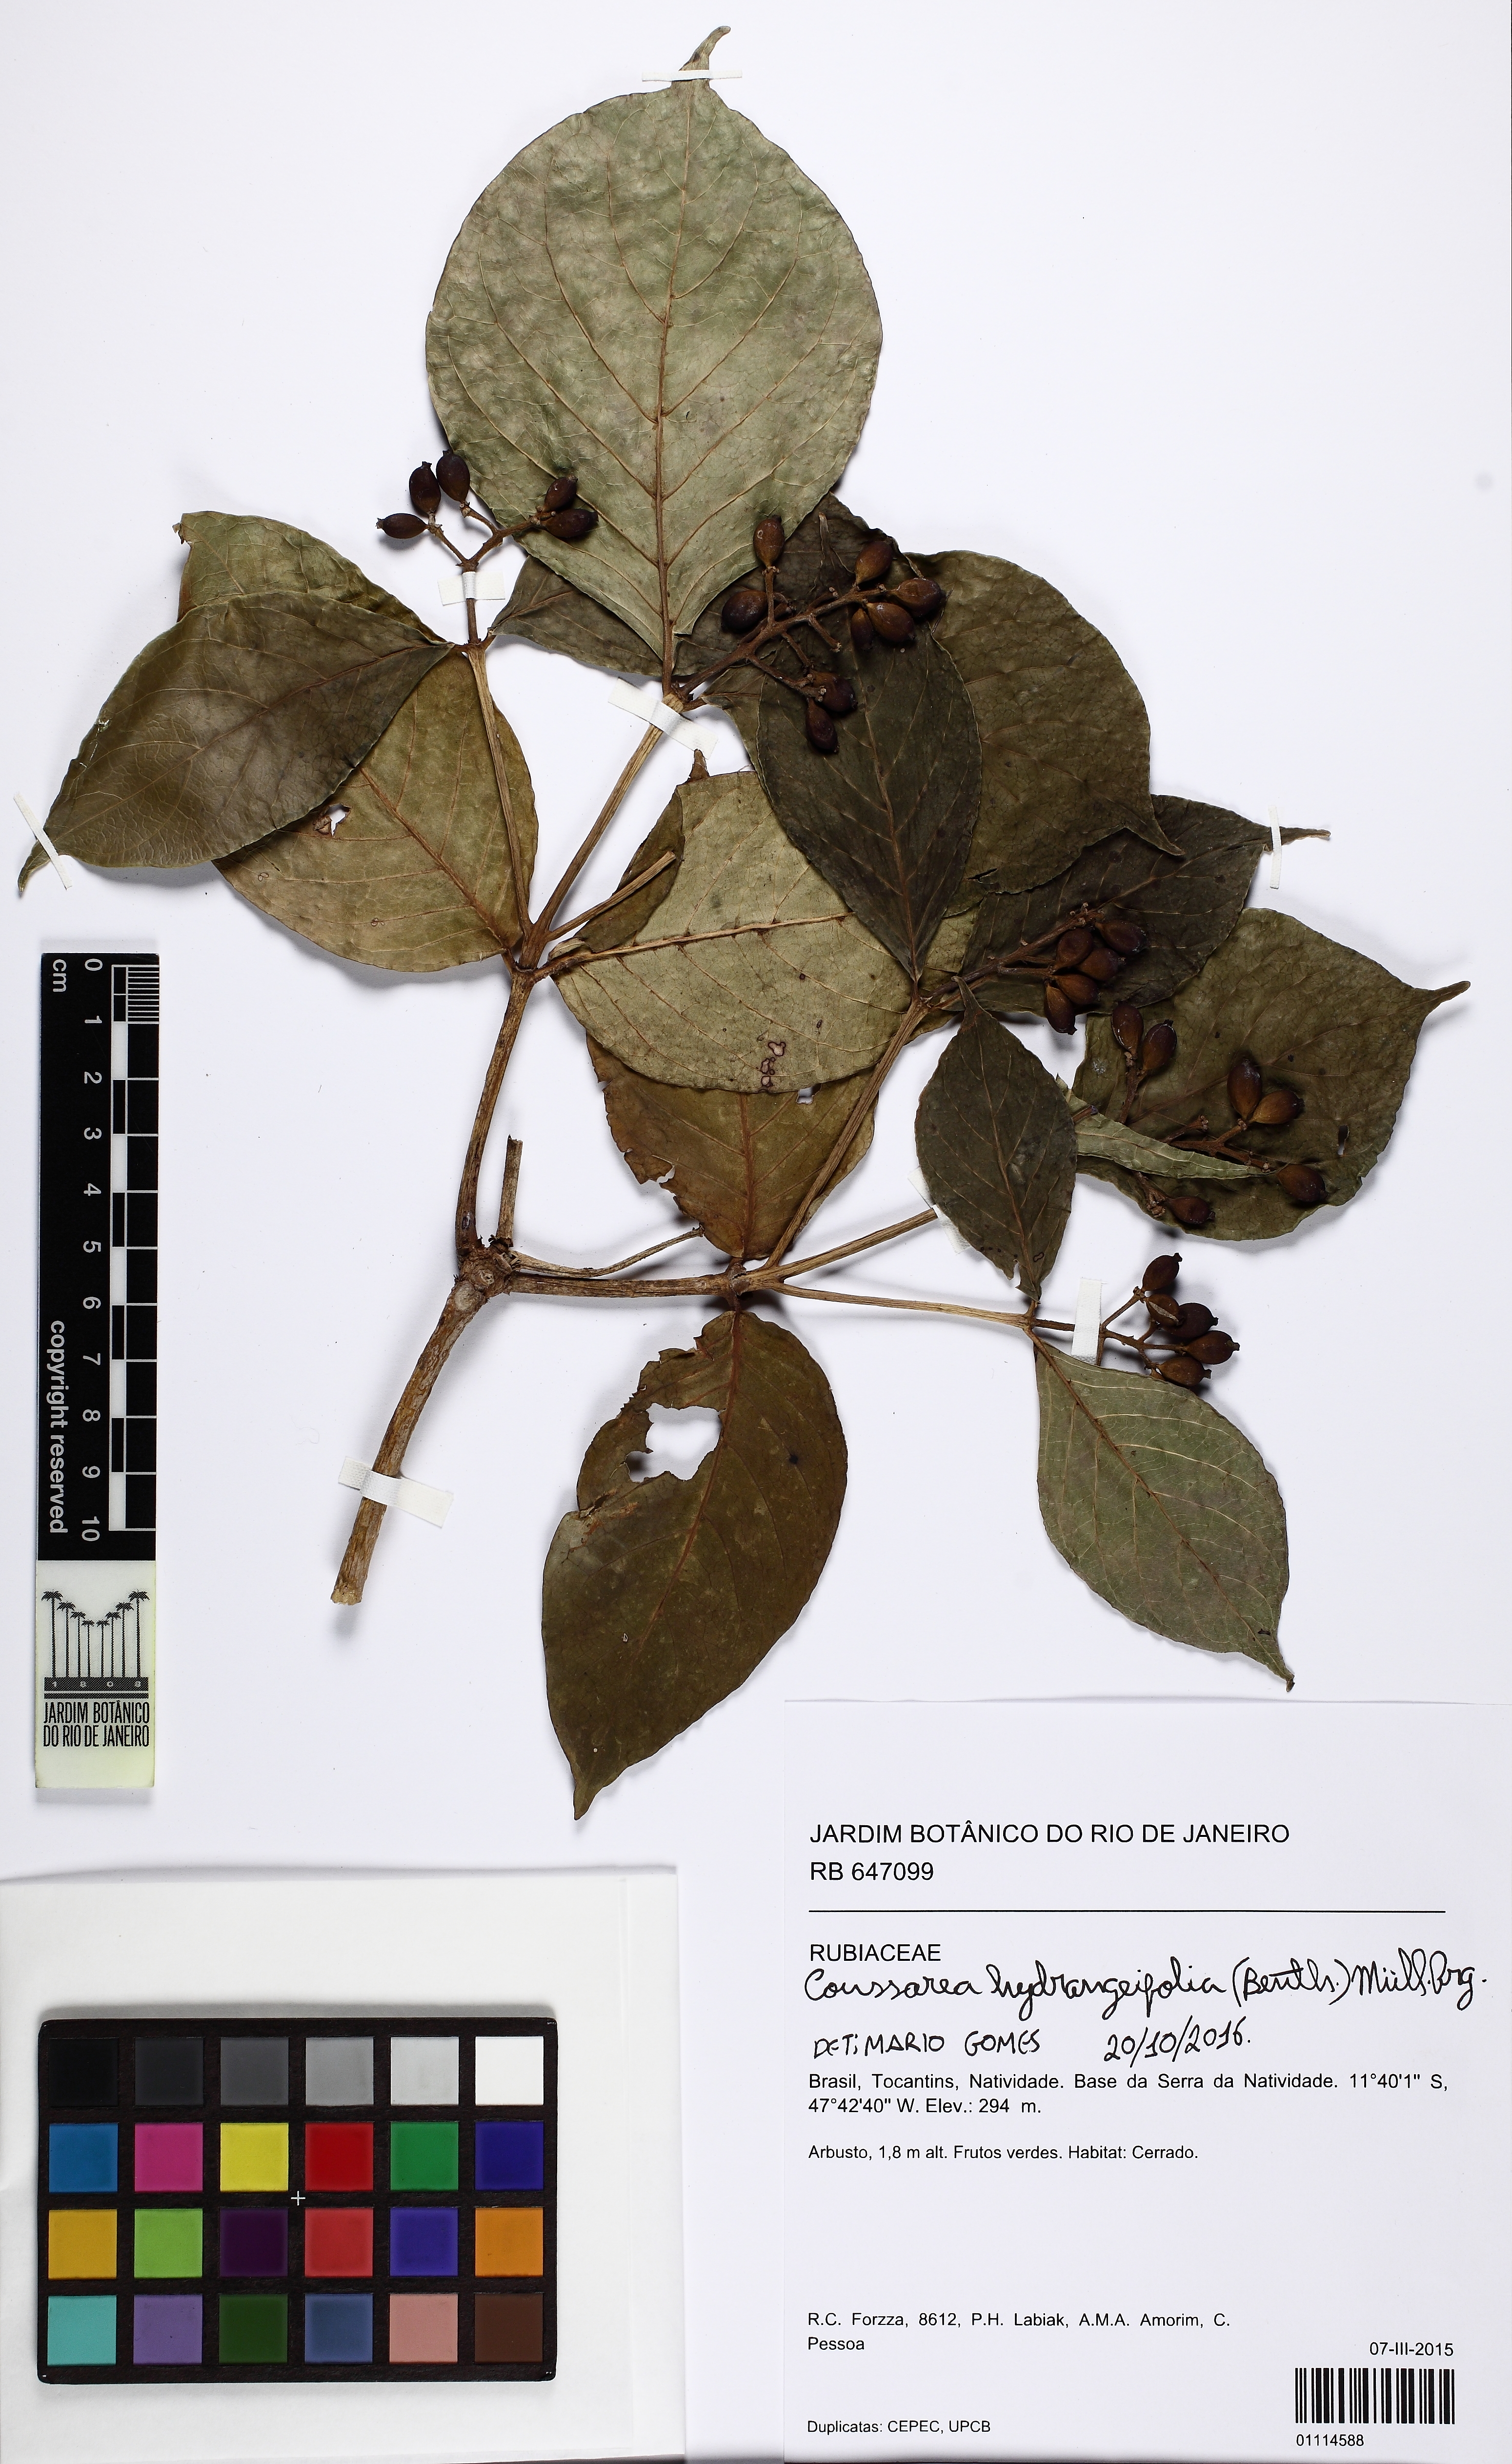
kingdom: Plantae
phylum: Tracheophyta
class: Magnoliopsida
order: Gentianales
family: Rubiaceae
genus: Coussarea
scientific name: Coussarea hydrangeifolia
